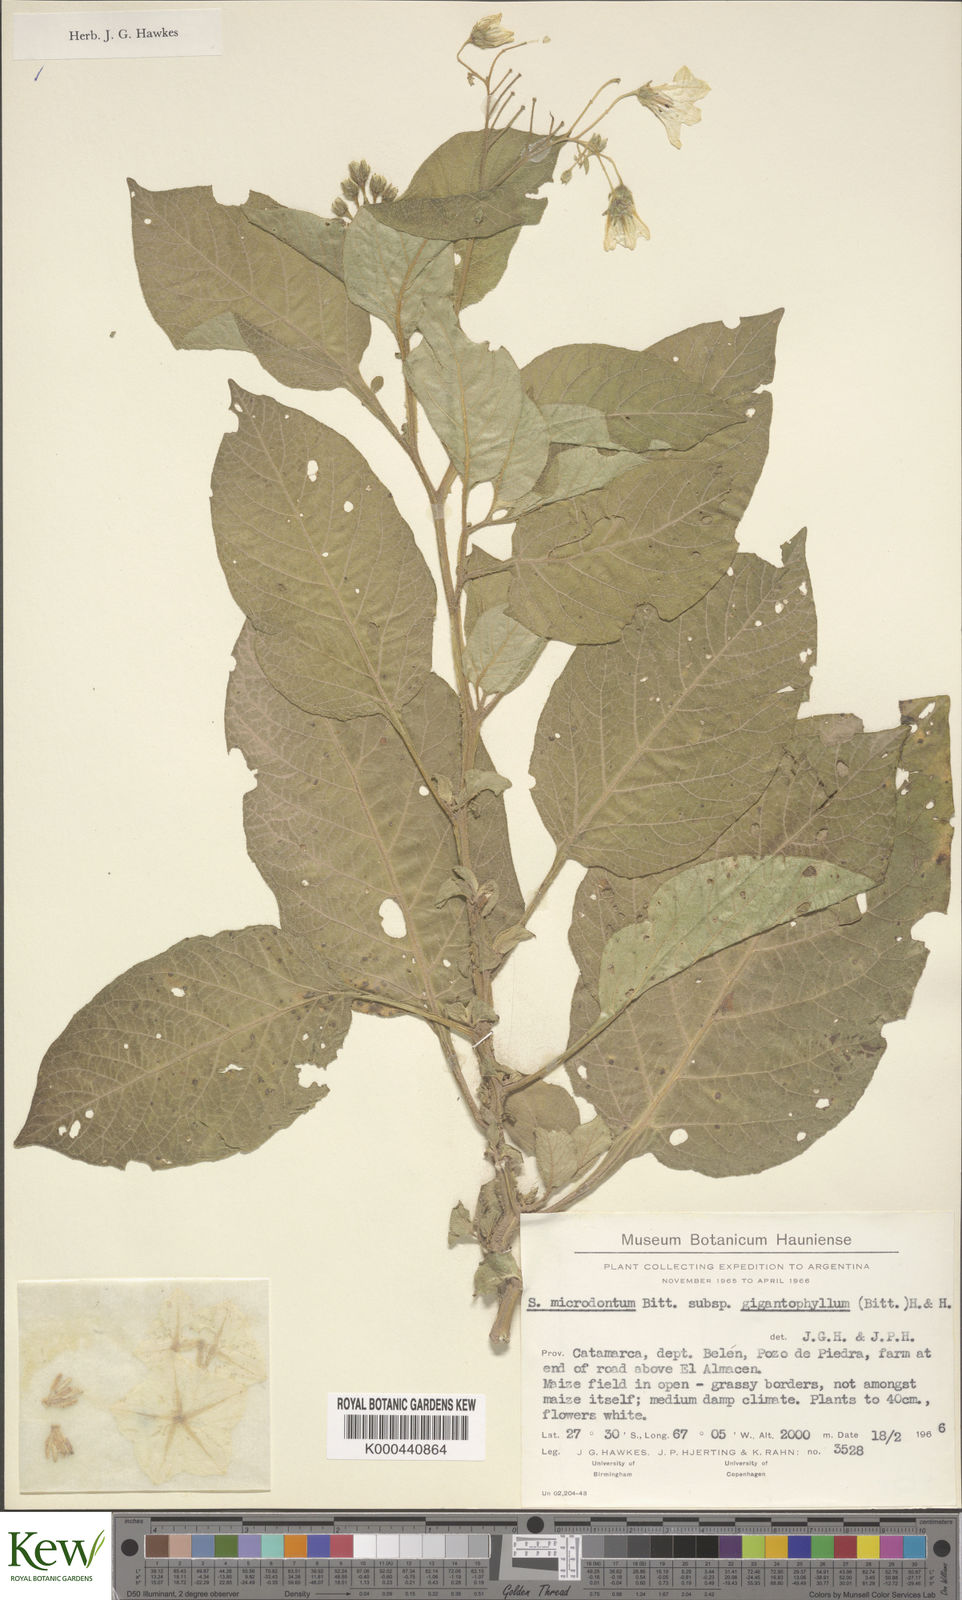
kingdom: Plantae
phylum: Tracheophyta
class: Magnoliopsida
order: Solanales
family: Solanaceae
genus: Solanum
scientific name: Solanum microdontum
